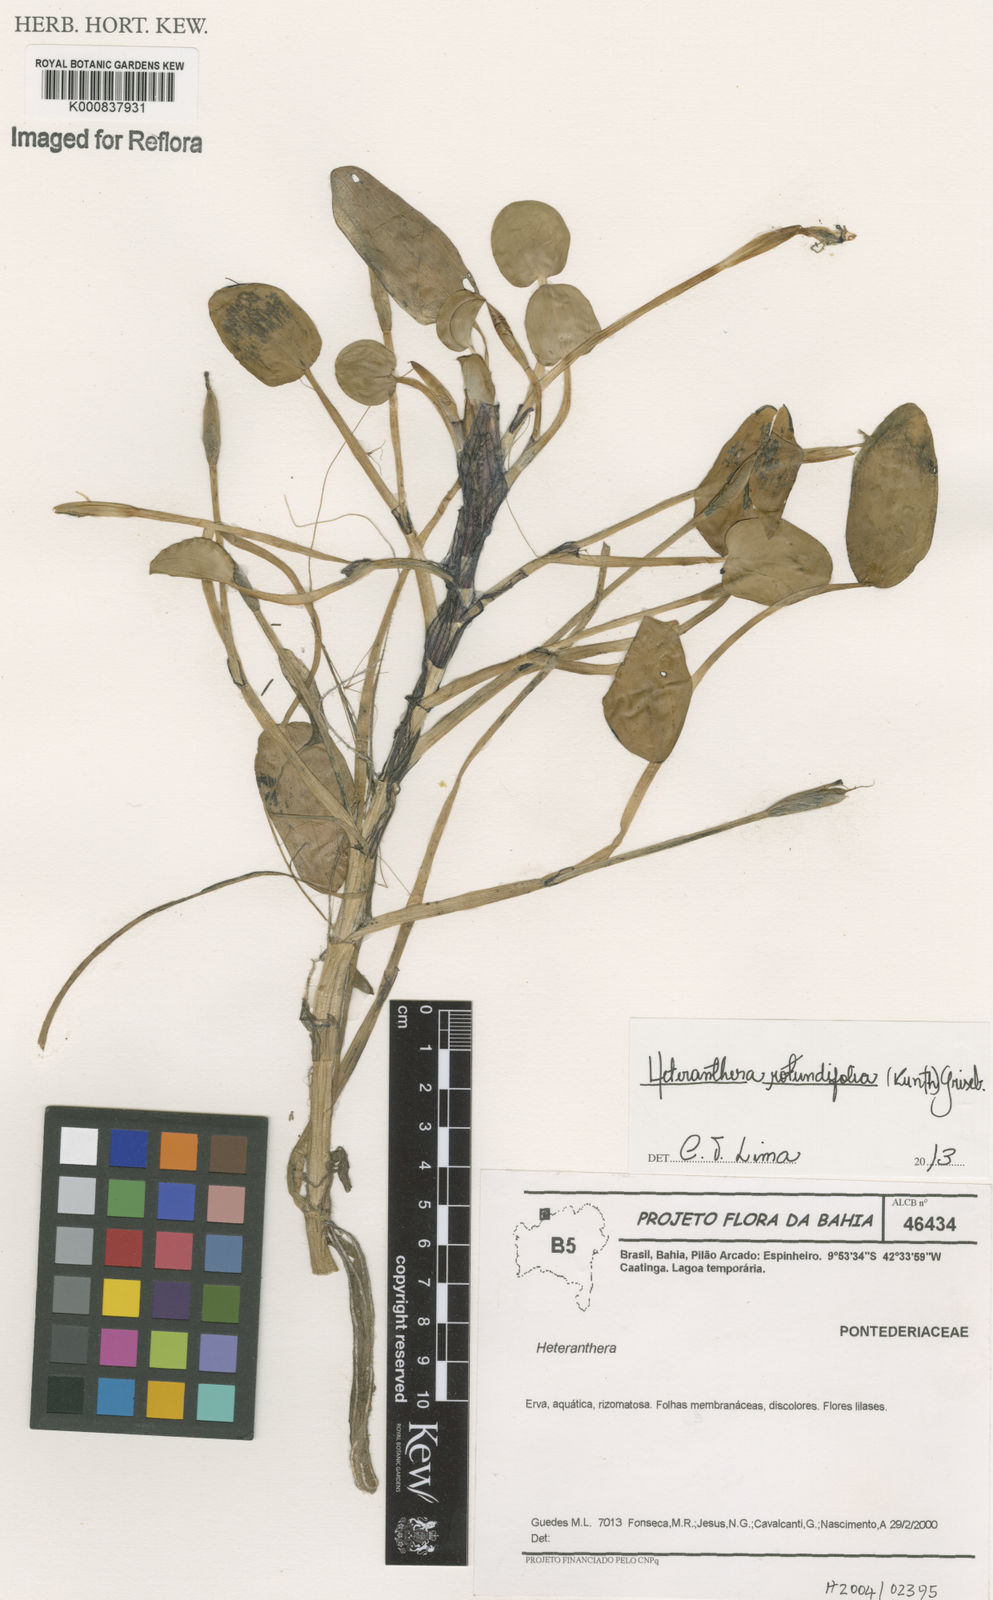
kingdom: Plantae
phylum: Tracheophyta
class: Liliopsida
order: Commelinales
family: Pontederiaceae
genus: Heteranthera
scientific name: Heteranthera rotundifolia
